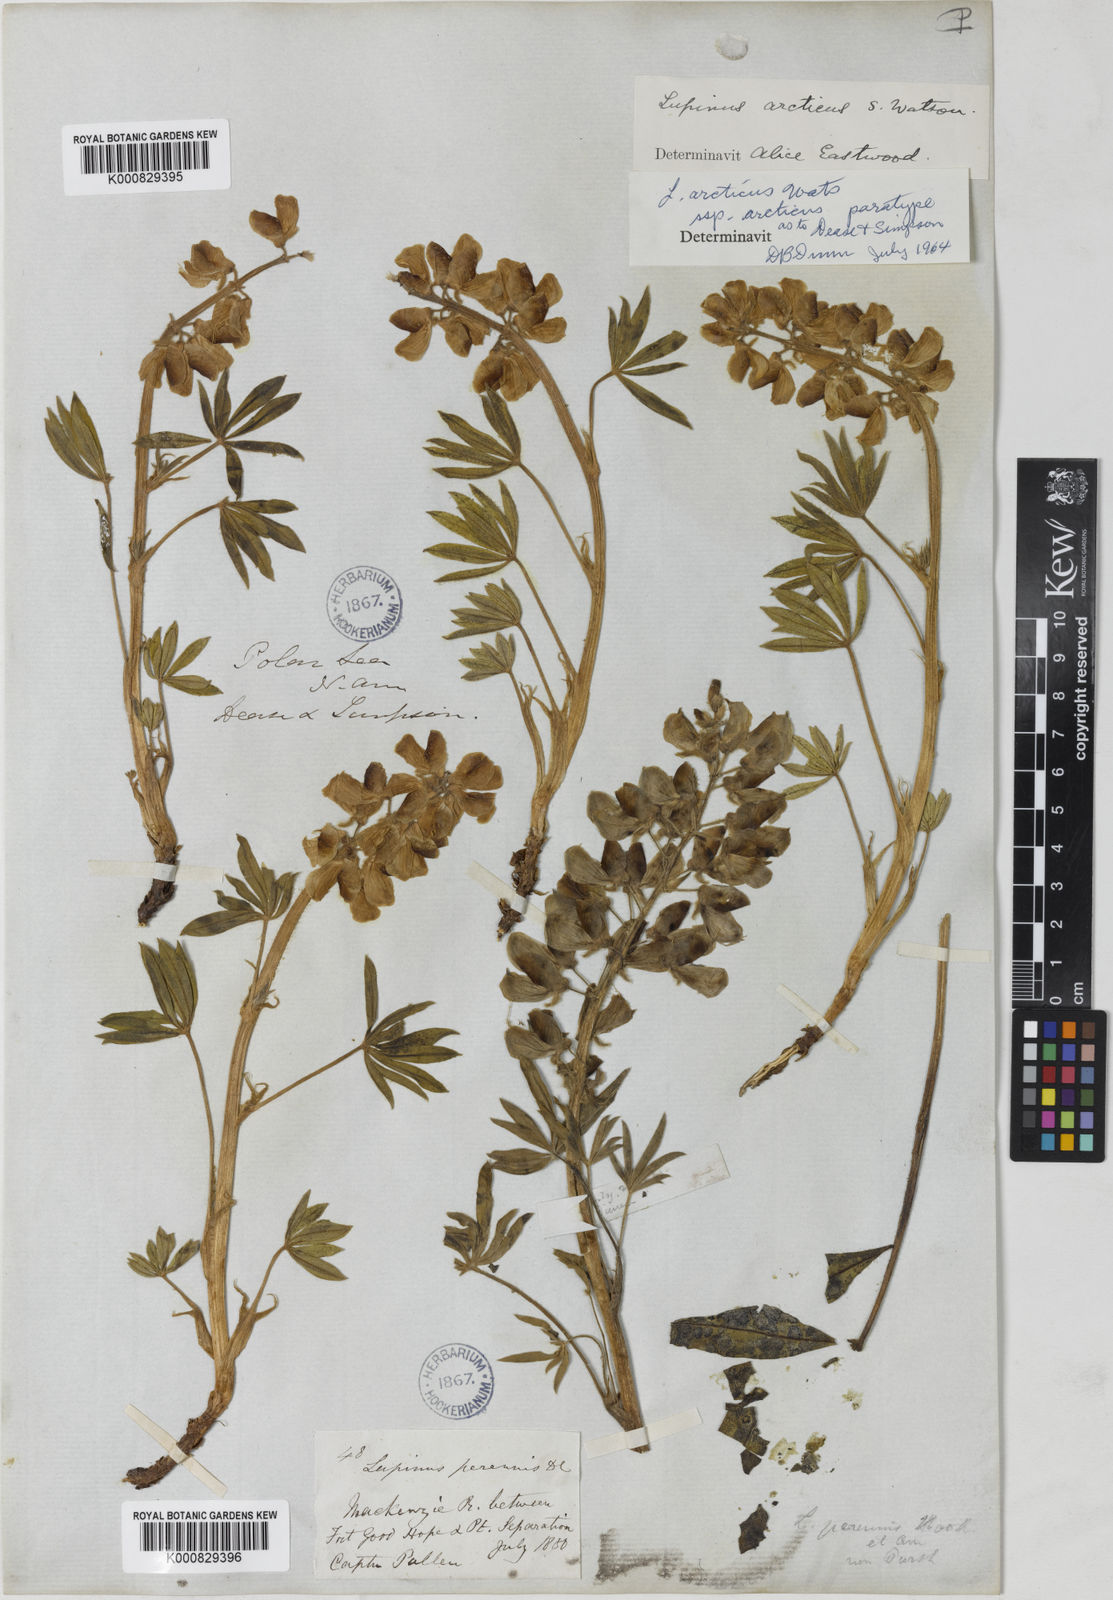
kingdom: Plantae
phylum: Tracheophyta
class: Magnoliopsida
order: Fabales
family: Fabaceae
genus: Lupinus
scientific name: Lupinus arcticus
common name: Arctic lupine
